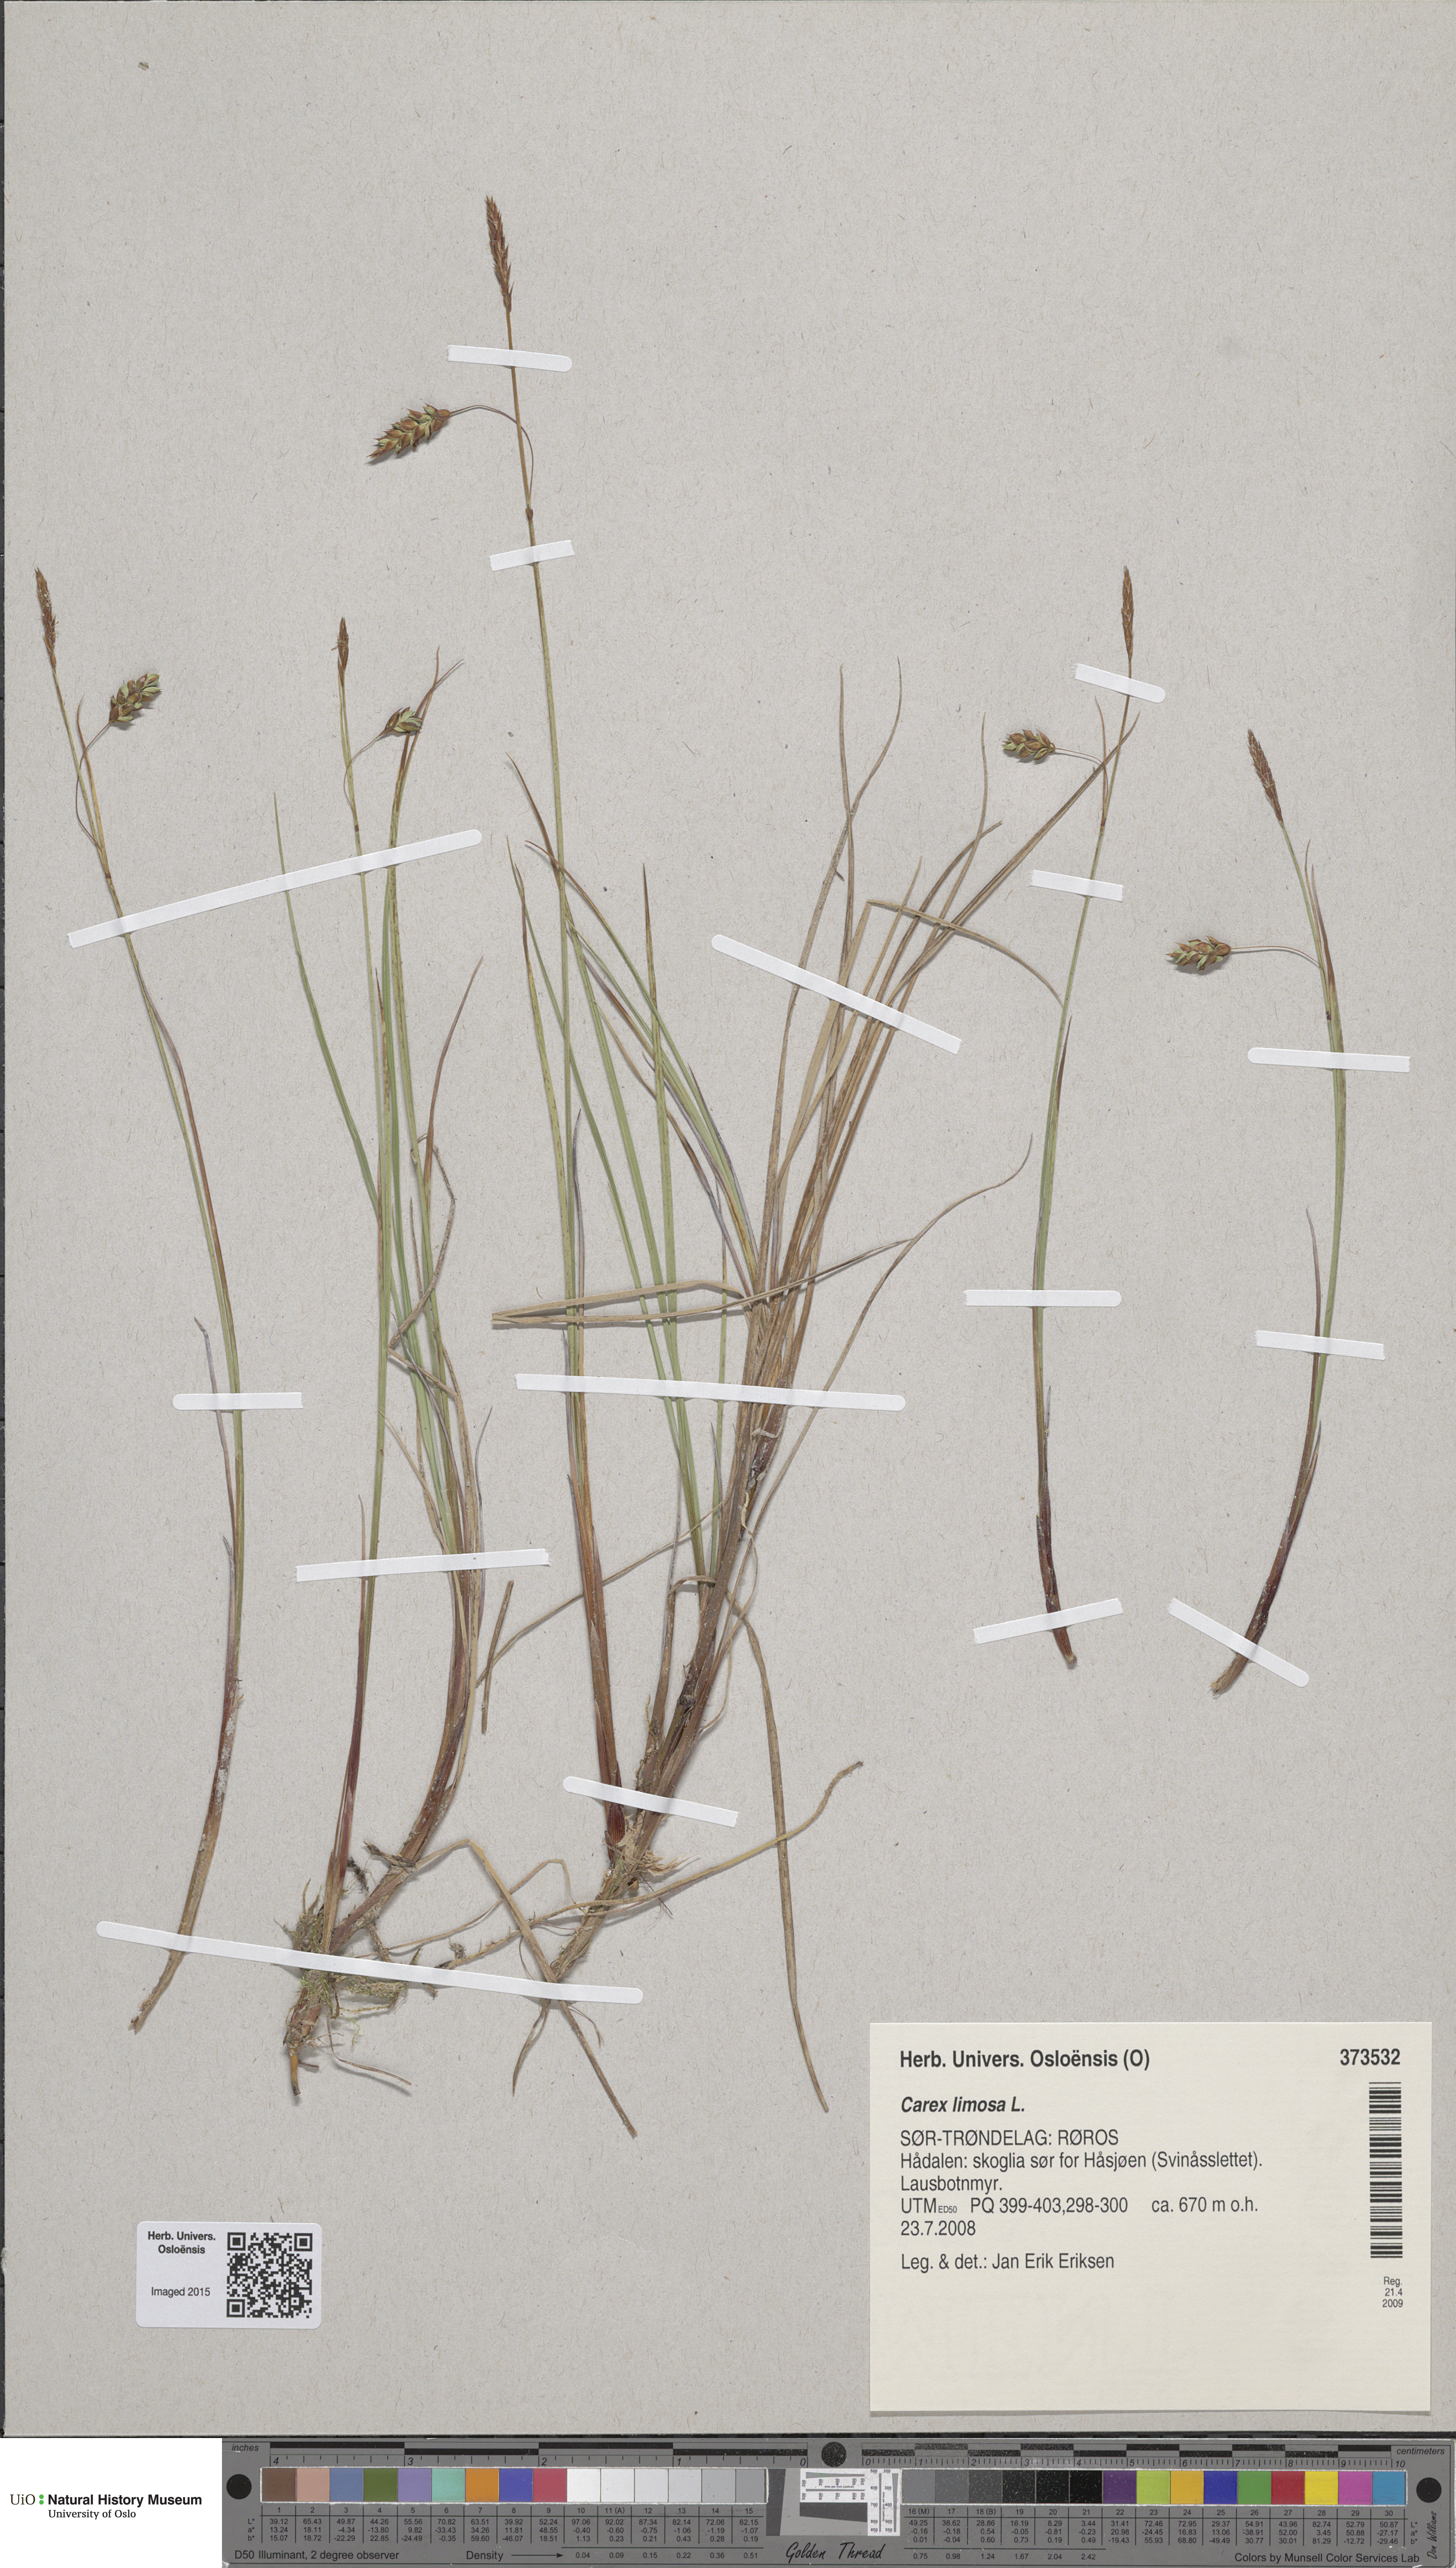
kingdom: Plantae
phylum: Tracheophyta
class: Liliopsida
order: Poales
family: Cyperaceae
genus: Carex
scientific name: Carex limosa
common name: Bog sedge
